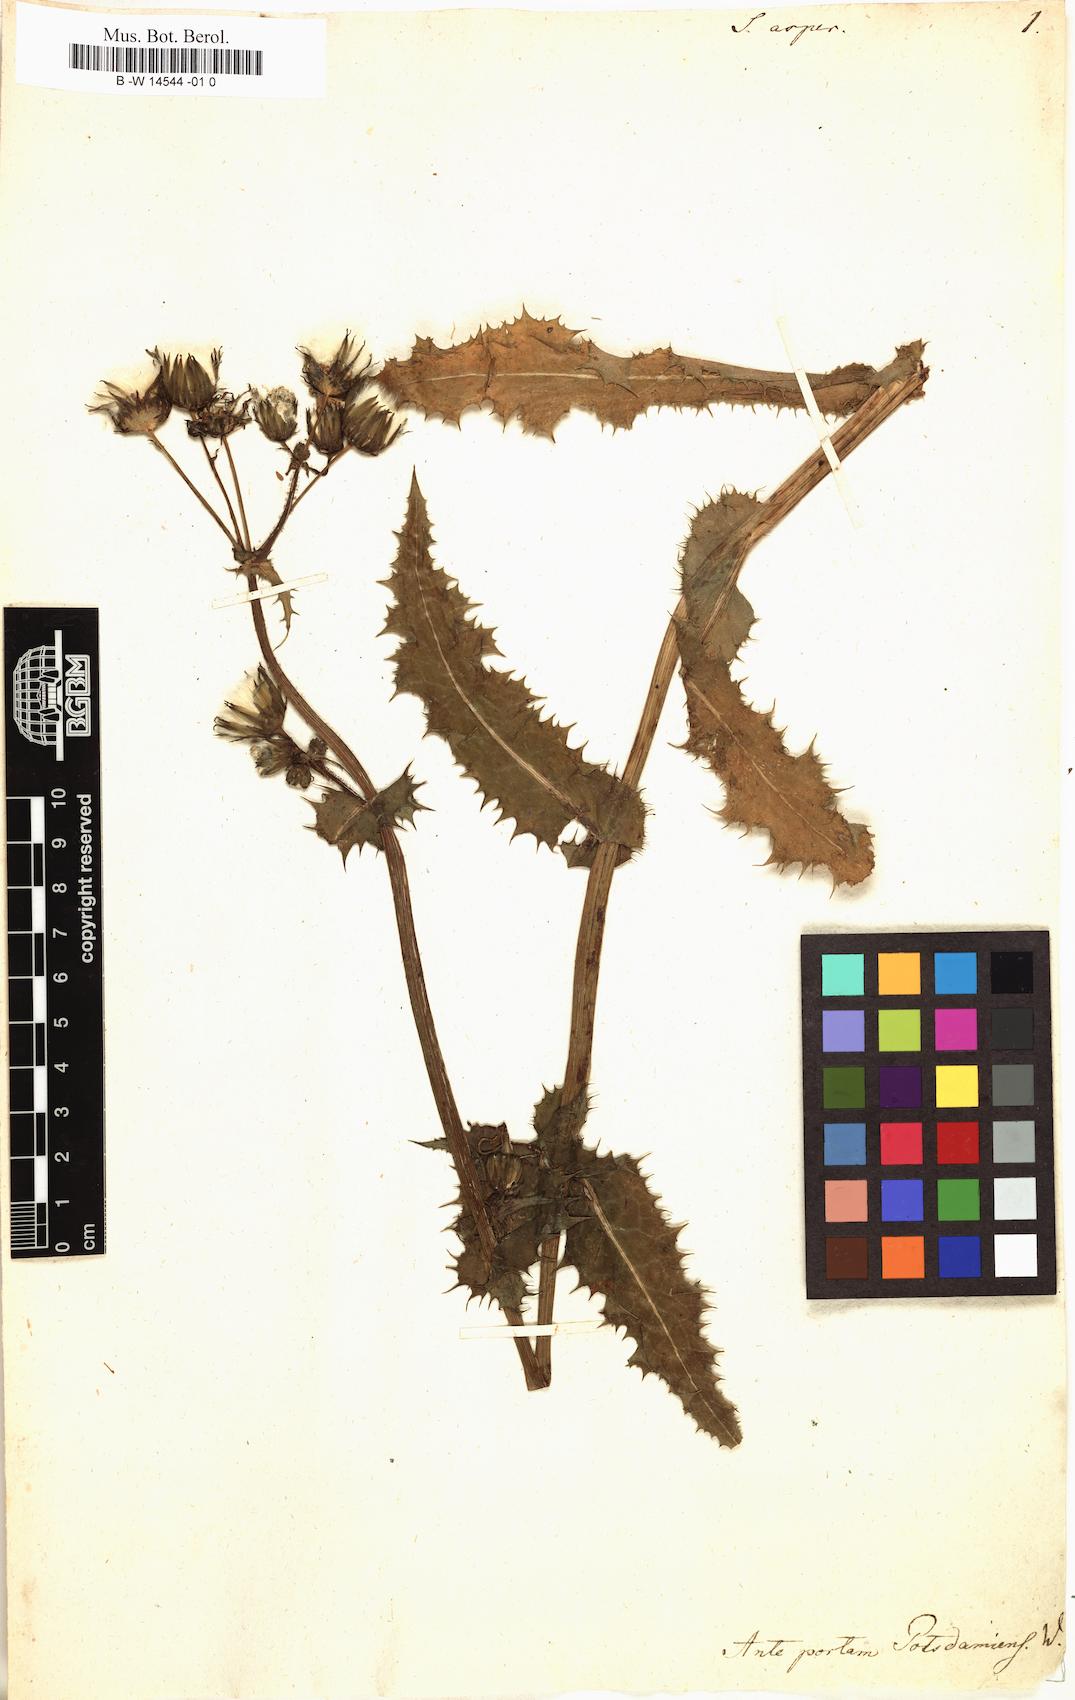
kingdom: Plantae
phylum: Tracheophyta
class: Magnoliopsida
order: Asterales
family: Asteraceae
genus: Sonchus
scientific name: Sonchus asper
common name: Prickly sow-thistle
